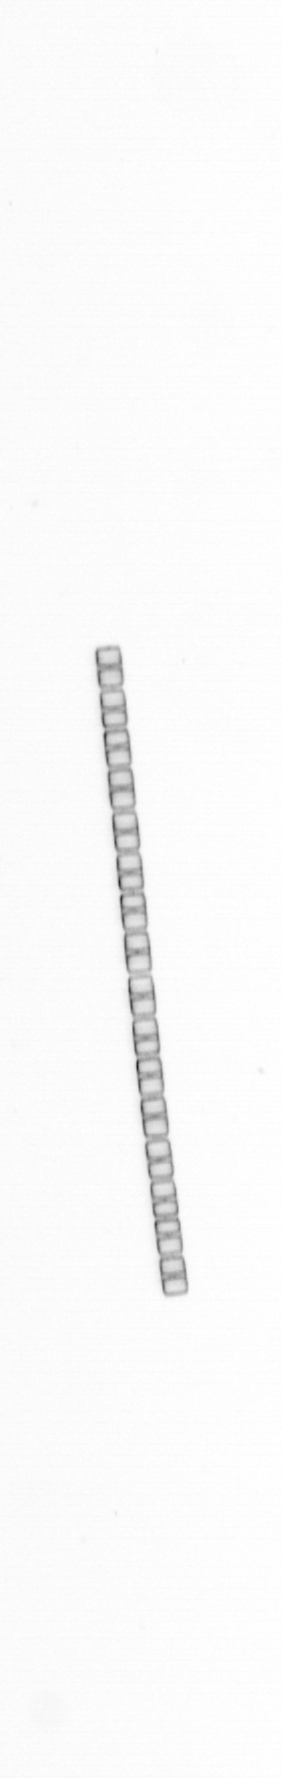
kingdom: Chromista
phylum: Ochrophyta
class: Bacillariophyceae
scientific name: Bacillariophyceae
